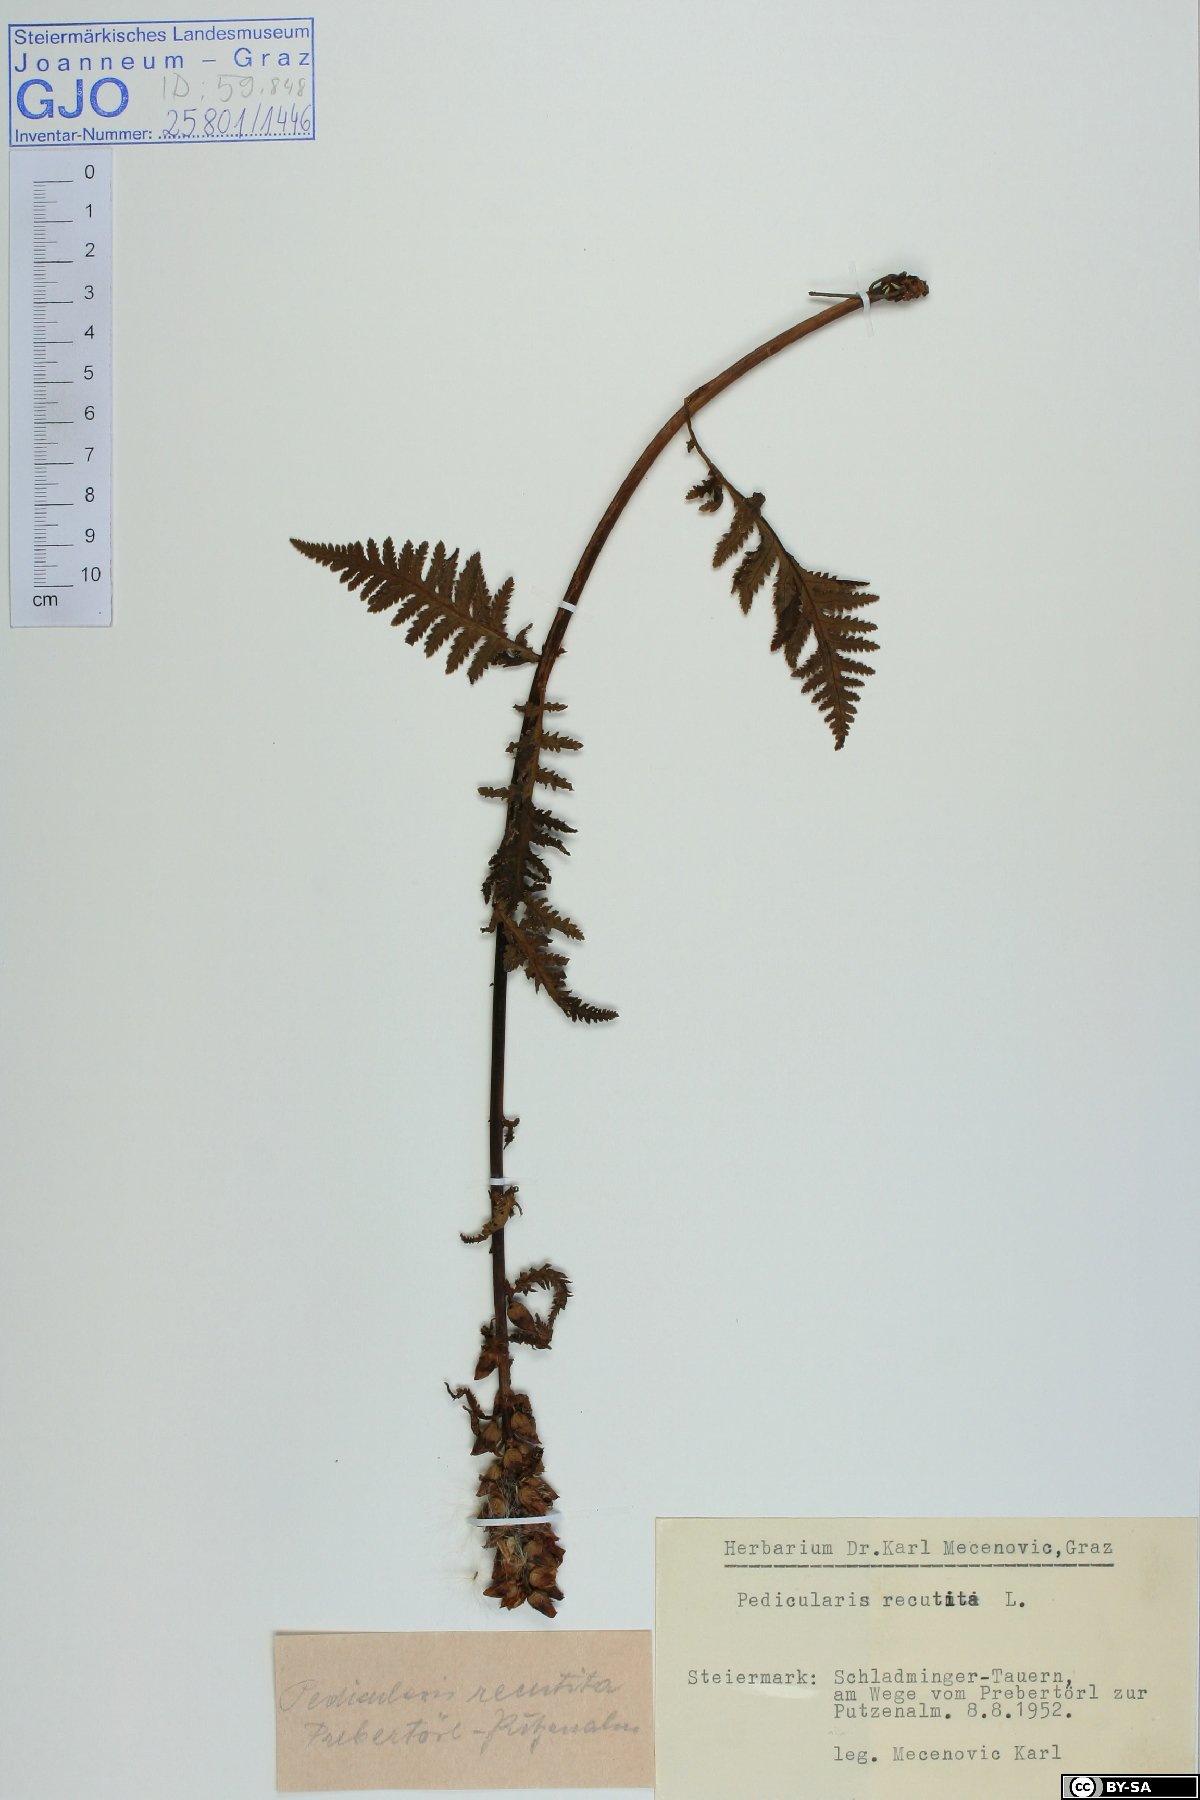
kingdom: Plantae
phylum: Tracheophyta
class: Magnoliopsida
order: Lamiales
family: Orobanchaceae
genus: Pedicularis
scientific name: Pedicularis recutita
